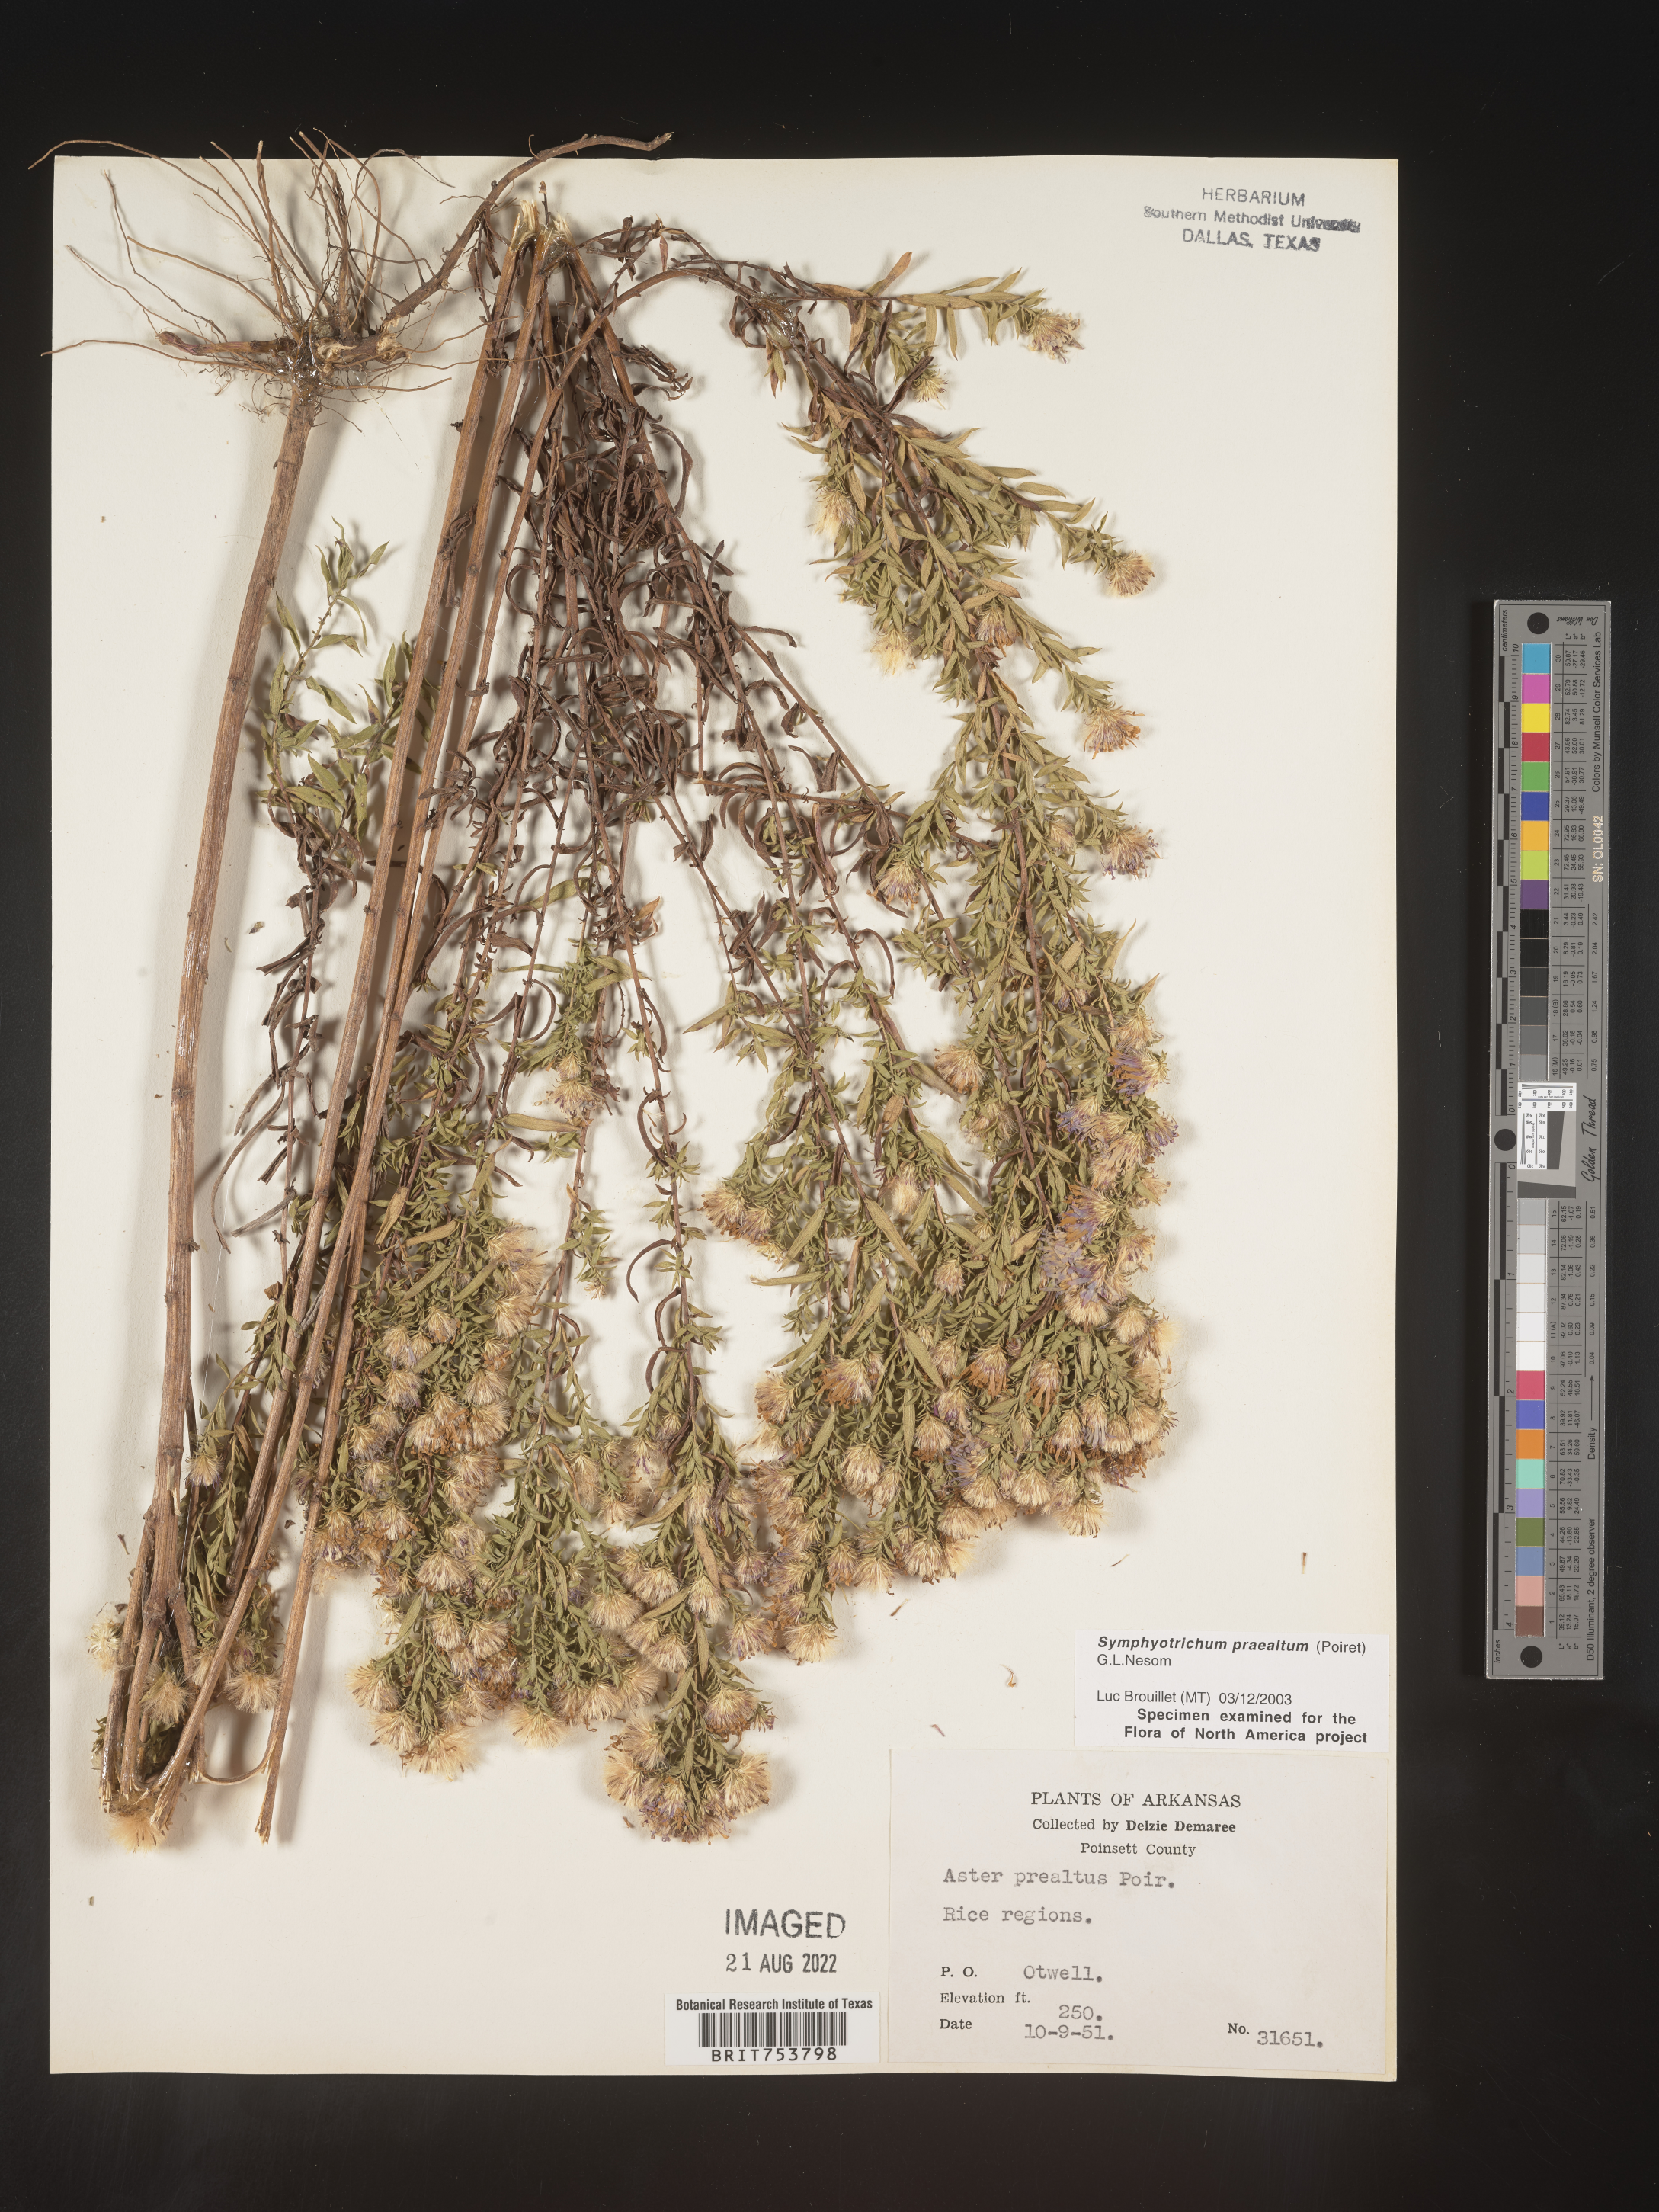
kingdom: Plantae
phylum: Tracheophyta
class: Magnoliopsida
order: Asterales
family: Asteraceae
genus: Symphyotrichum
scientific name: Symphyotrichum praealtum
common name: Willow aster
